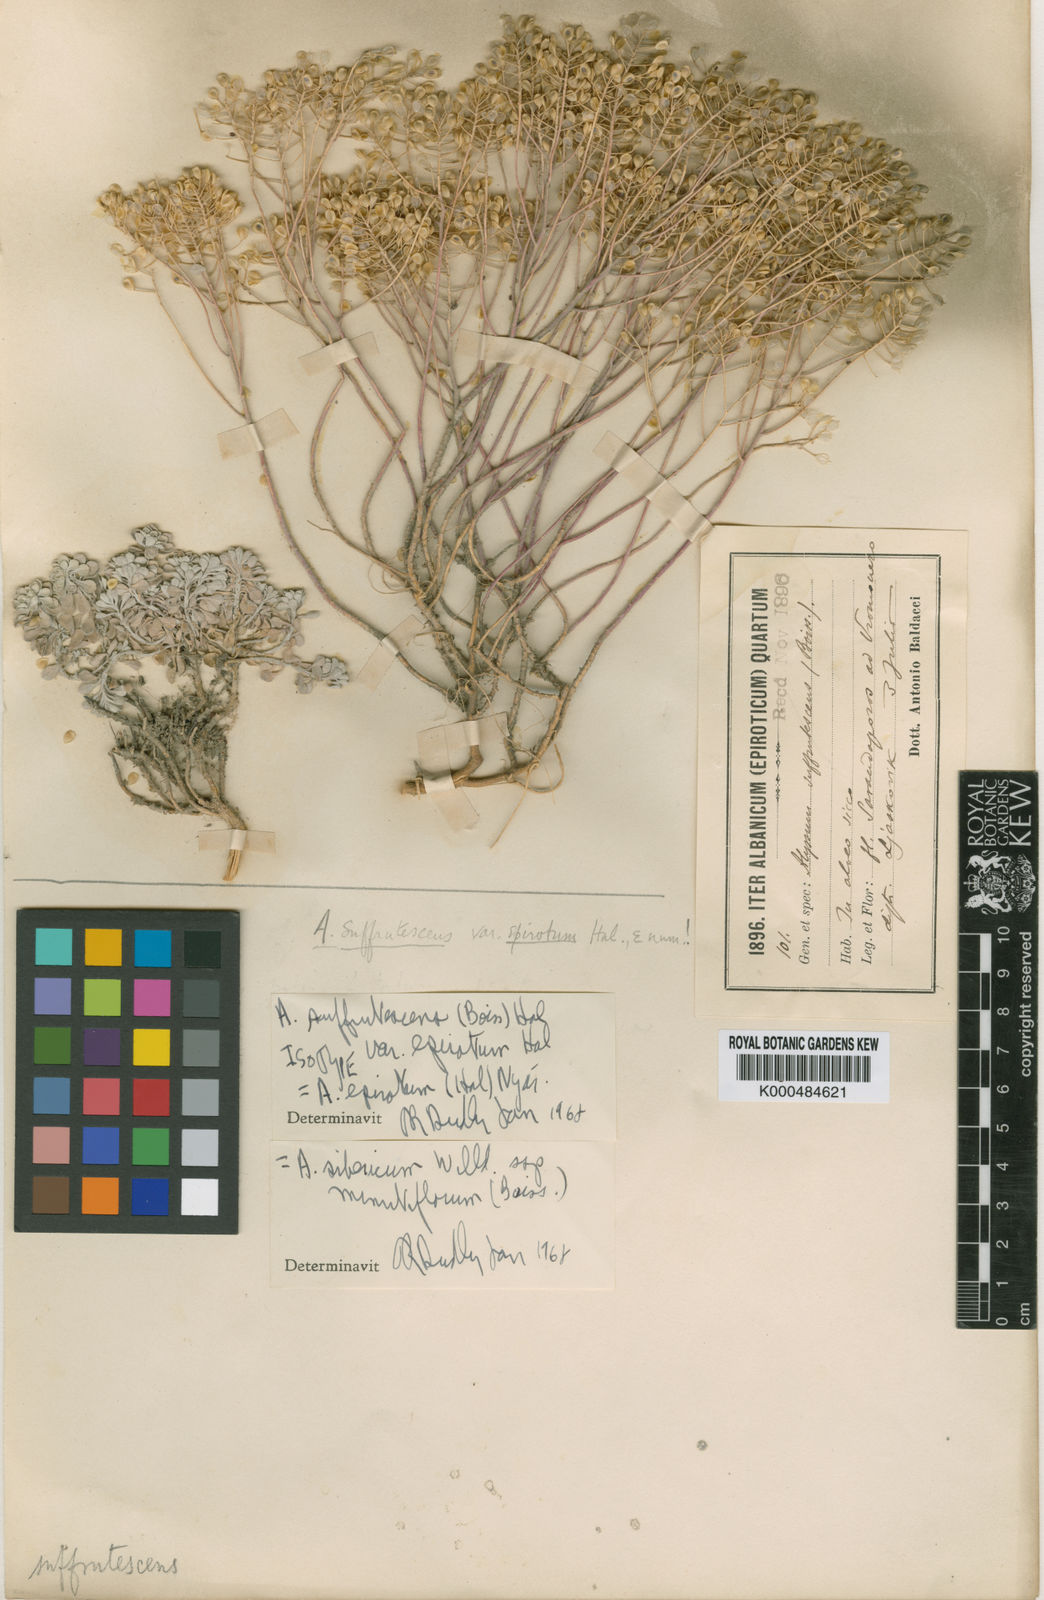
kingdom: Plantae
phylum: Tracheophyta
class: Magnoliopsida
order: Brassicales
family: Brassicaceae
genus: Odontarrhena
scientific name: Odontarrhena sibirica
